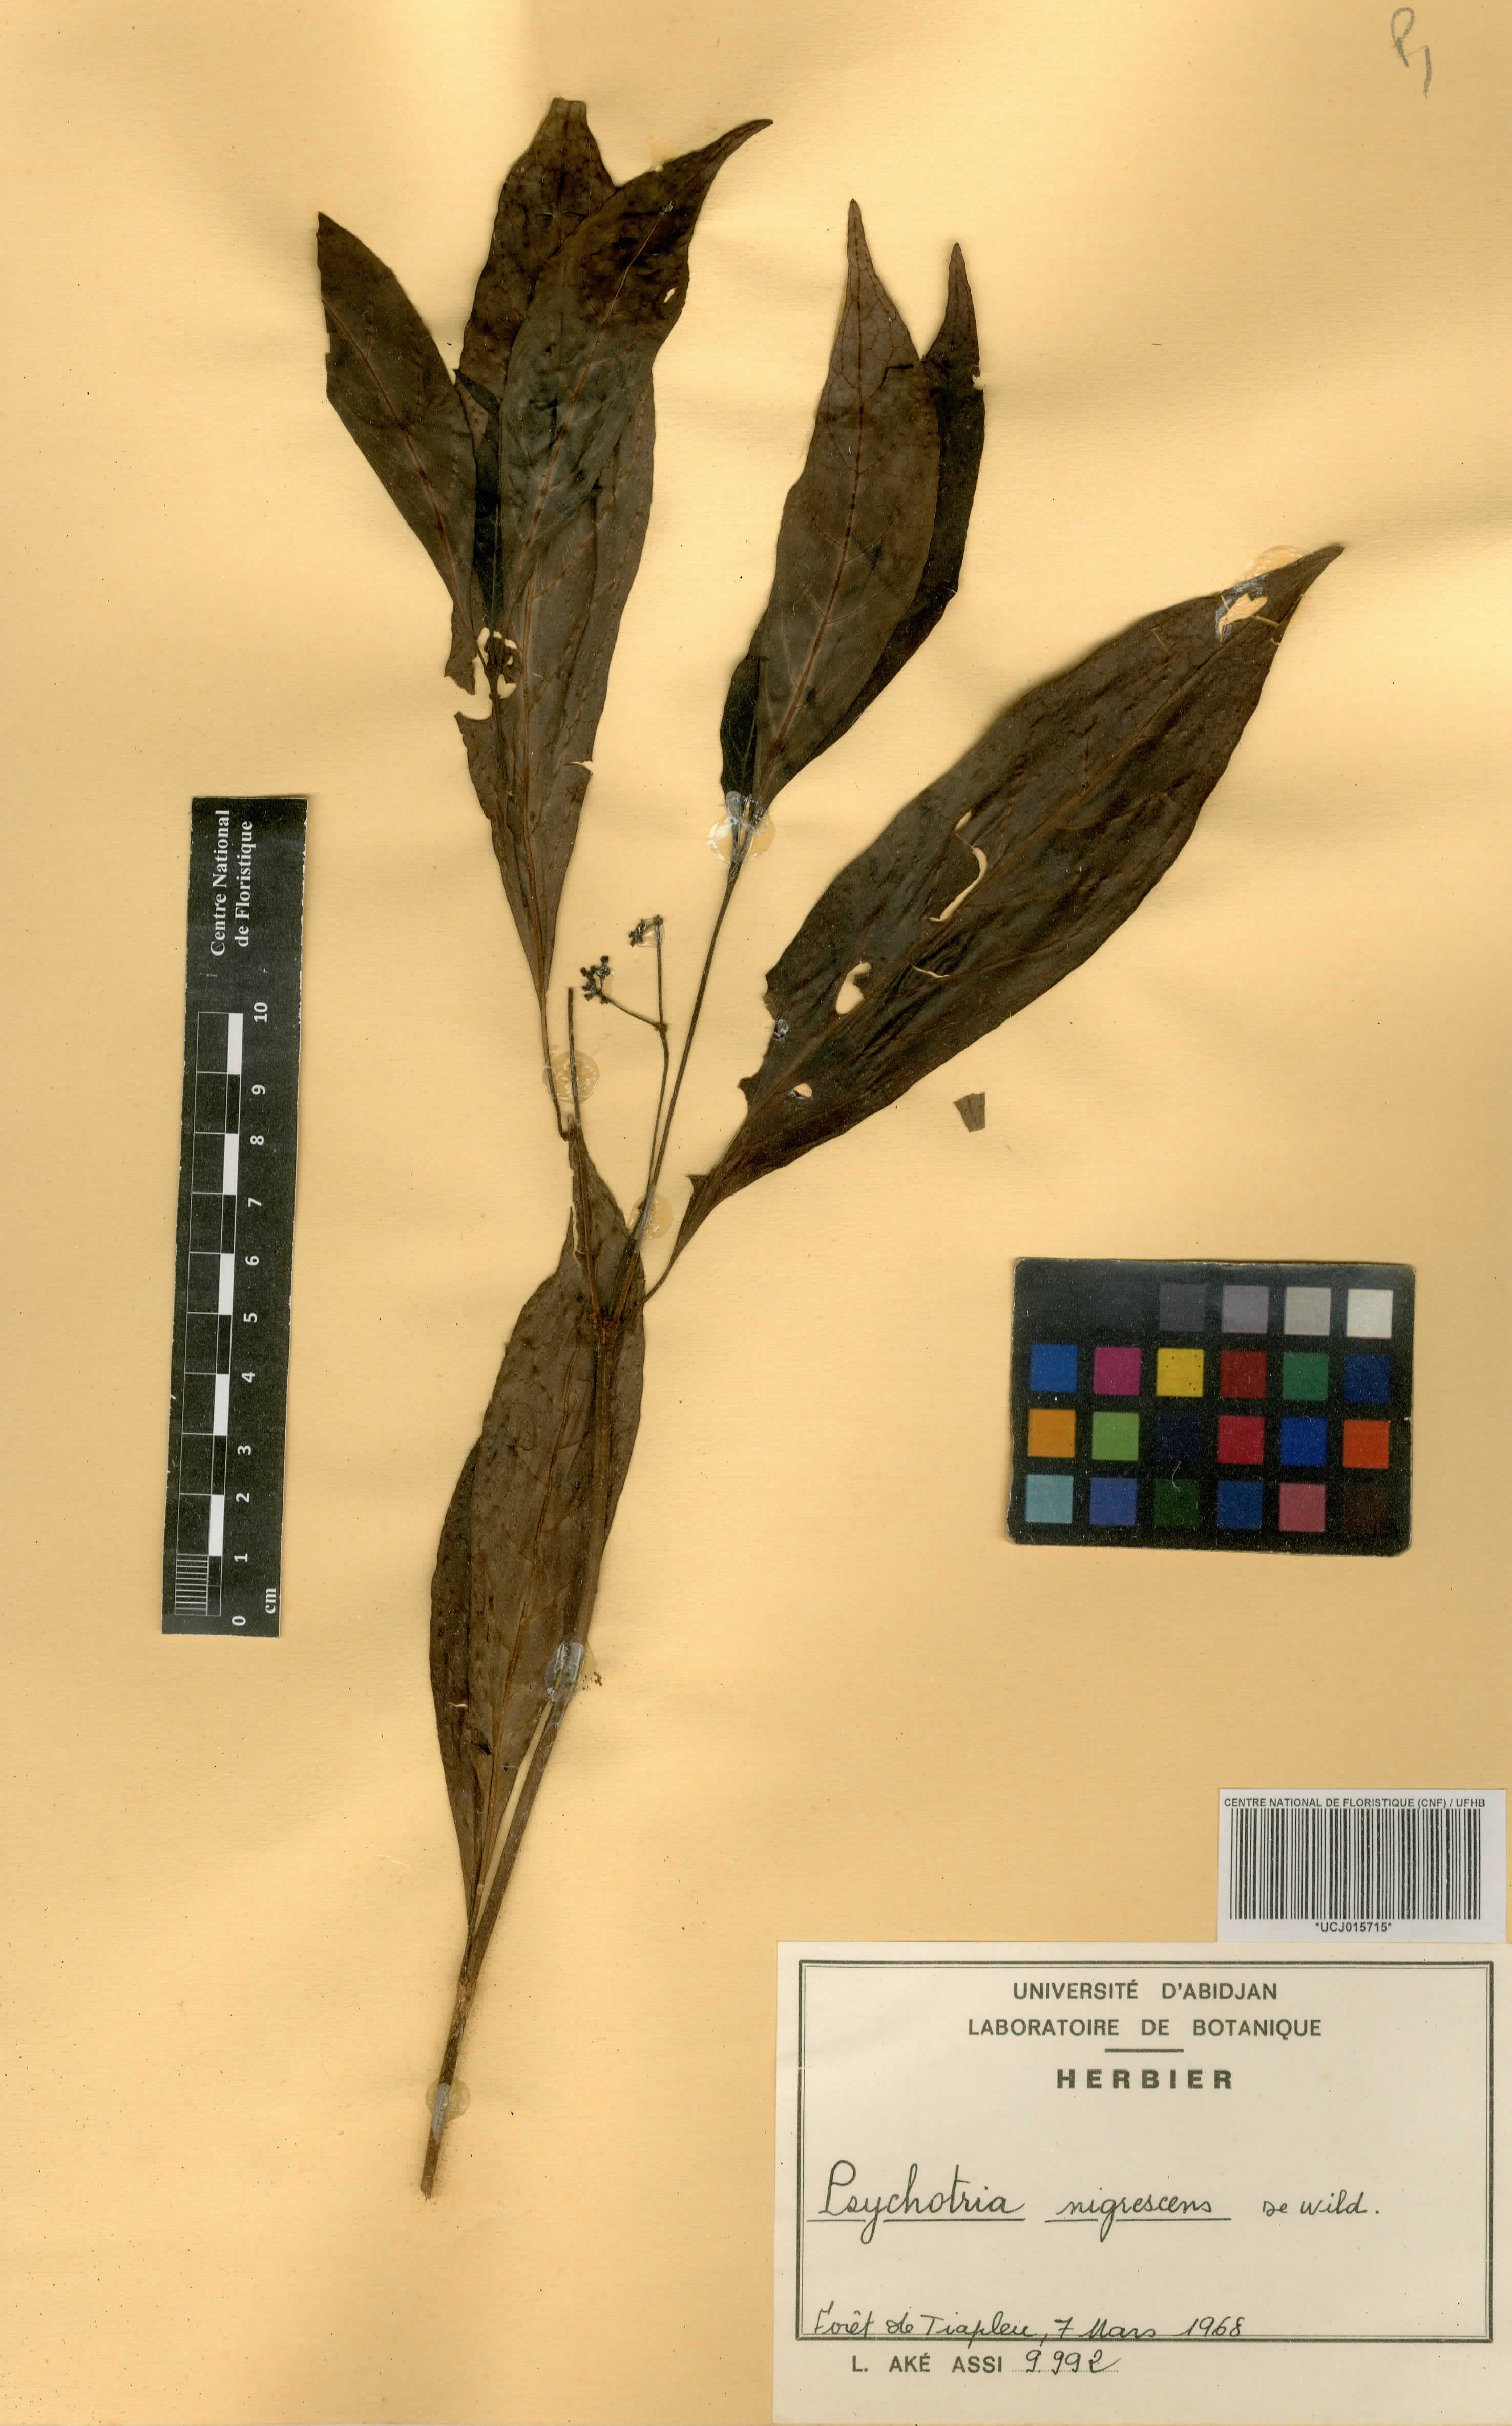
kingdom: Plantae
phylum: Tracheophyta
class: Magnoliopsida
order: Gentianales
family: Rubiaceae
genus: Psychotria
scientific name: Psychotria nigrescens
